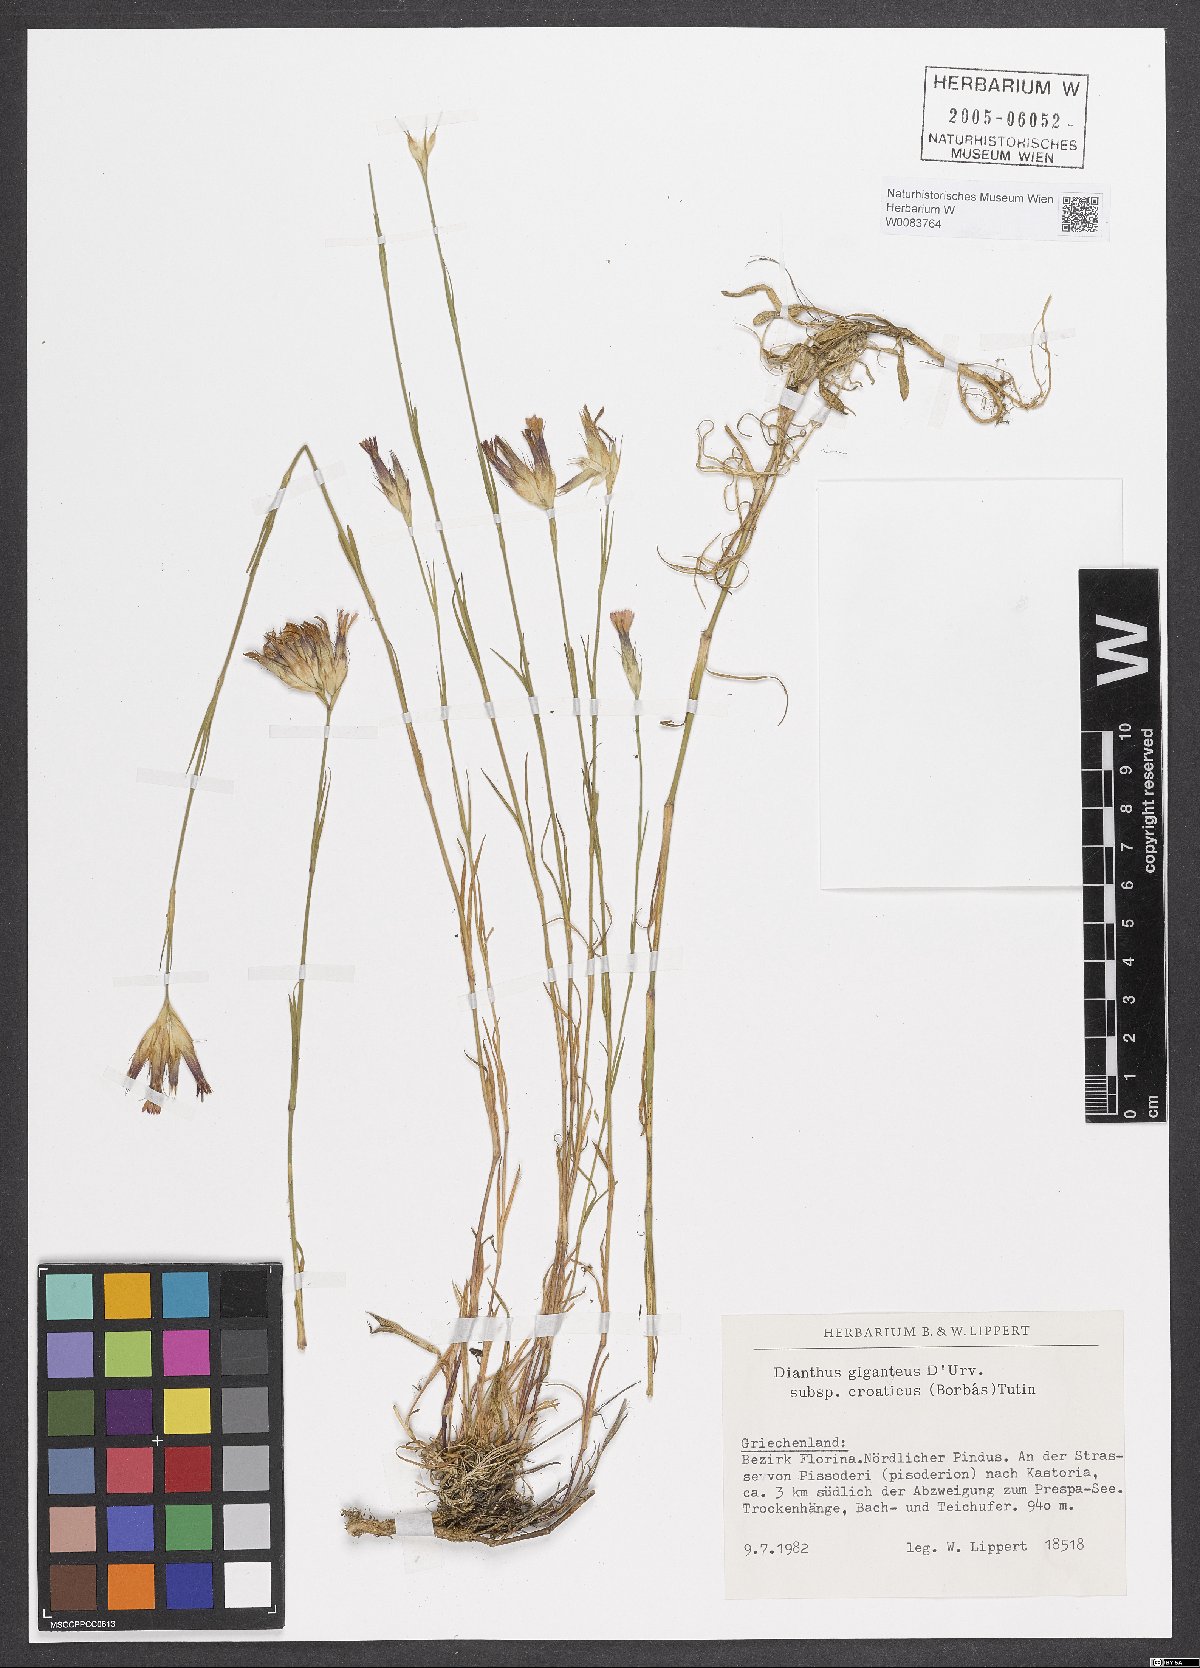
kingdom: Plantae
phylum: Tracheophyta
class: Magnoliopsida
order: Caryophyllales
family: Caryophyllaceae
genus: Dianthus
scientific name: Dianthus giganteus
